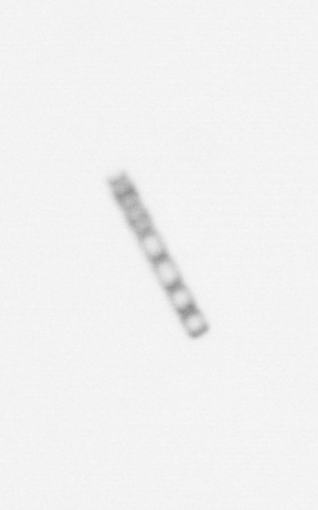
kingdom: Chromista
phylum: Ochrophyta
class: Bacillariophyceae
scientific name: Bacillariophyceae
